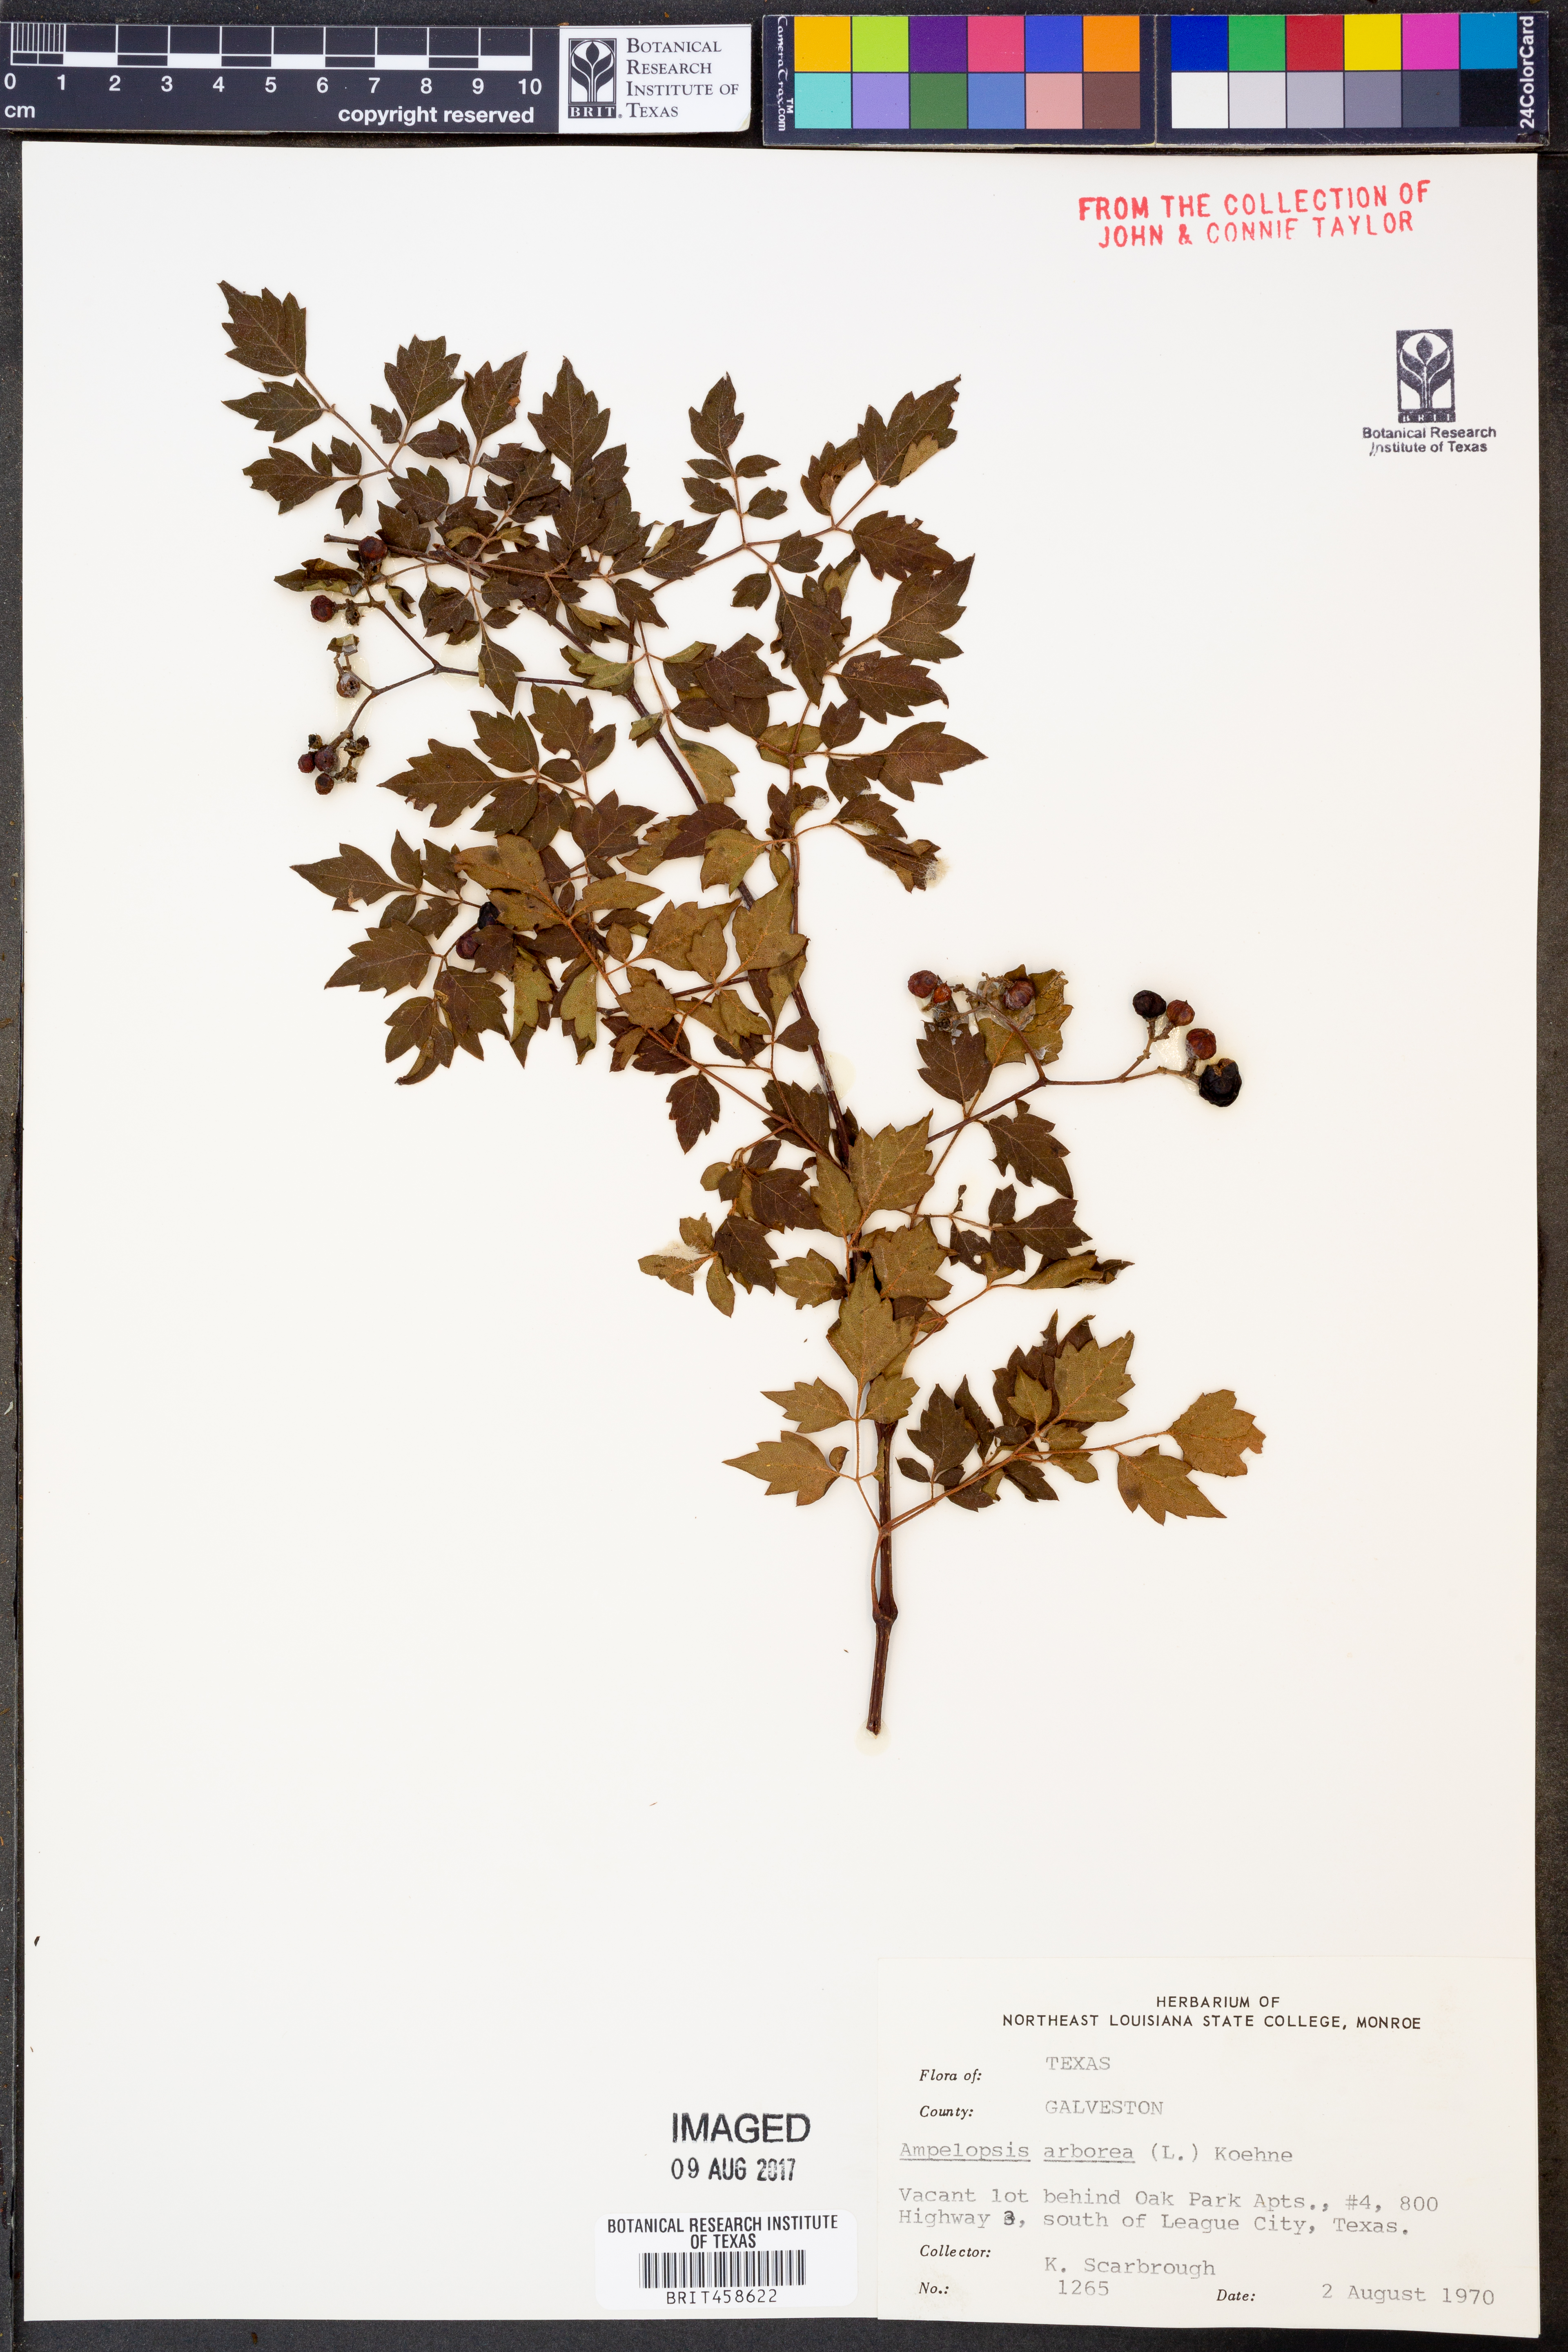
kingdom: Plantae
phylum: Tracheophyta
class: Magnoliopsida
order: Vitales
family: Vitaceae
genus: Nekemias
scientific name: Nekemias arborea
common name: Peppervine
